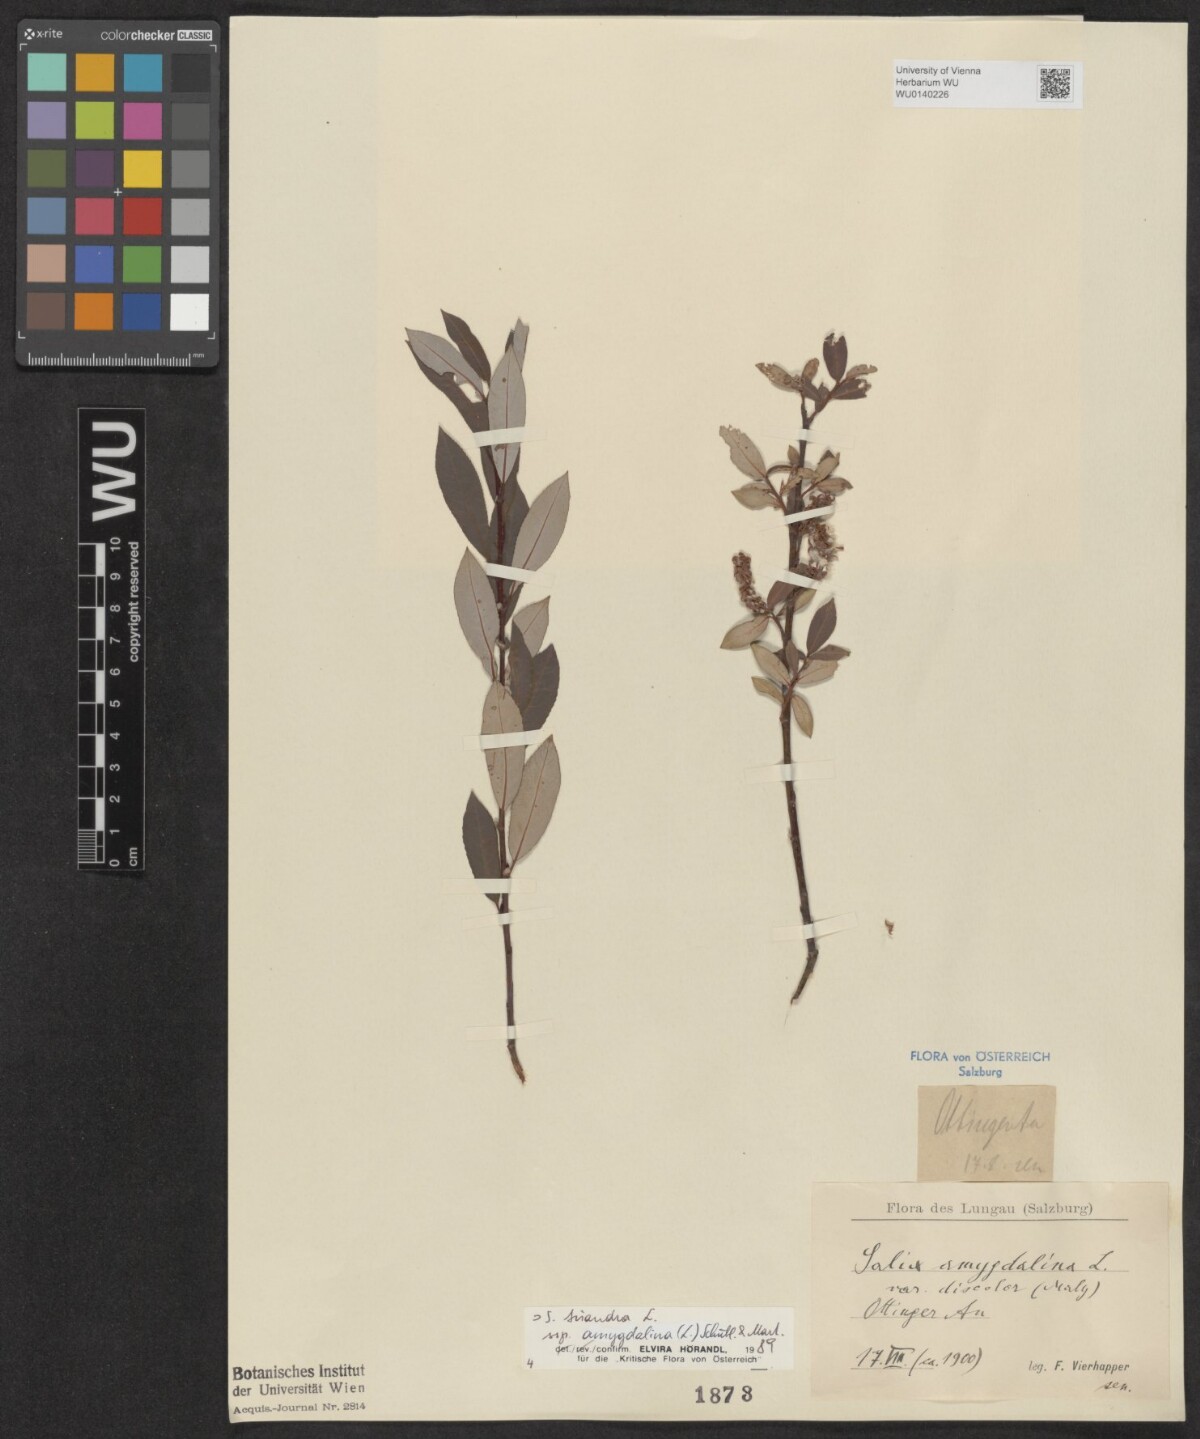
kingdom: Plantae
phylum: Tracheophyta
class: Magnoliopsida
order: Malpighiales
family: Salicaceae
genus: Salix
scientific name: Salix triandra
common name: Almond willow
